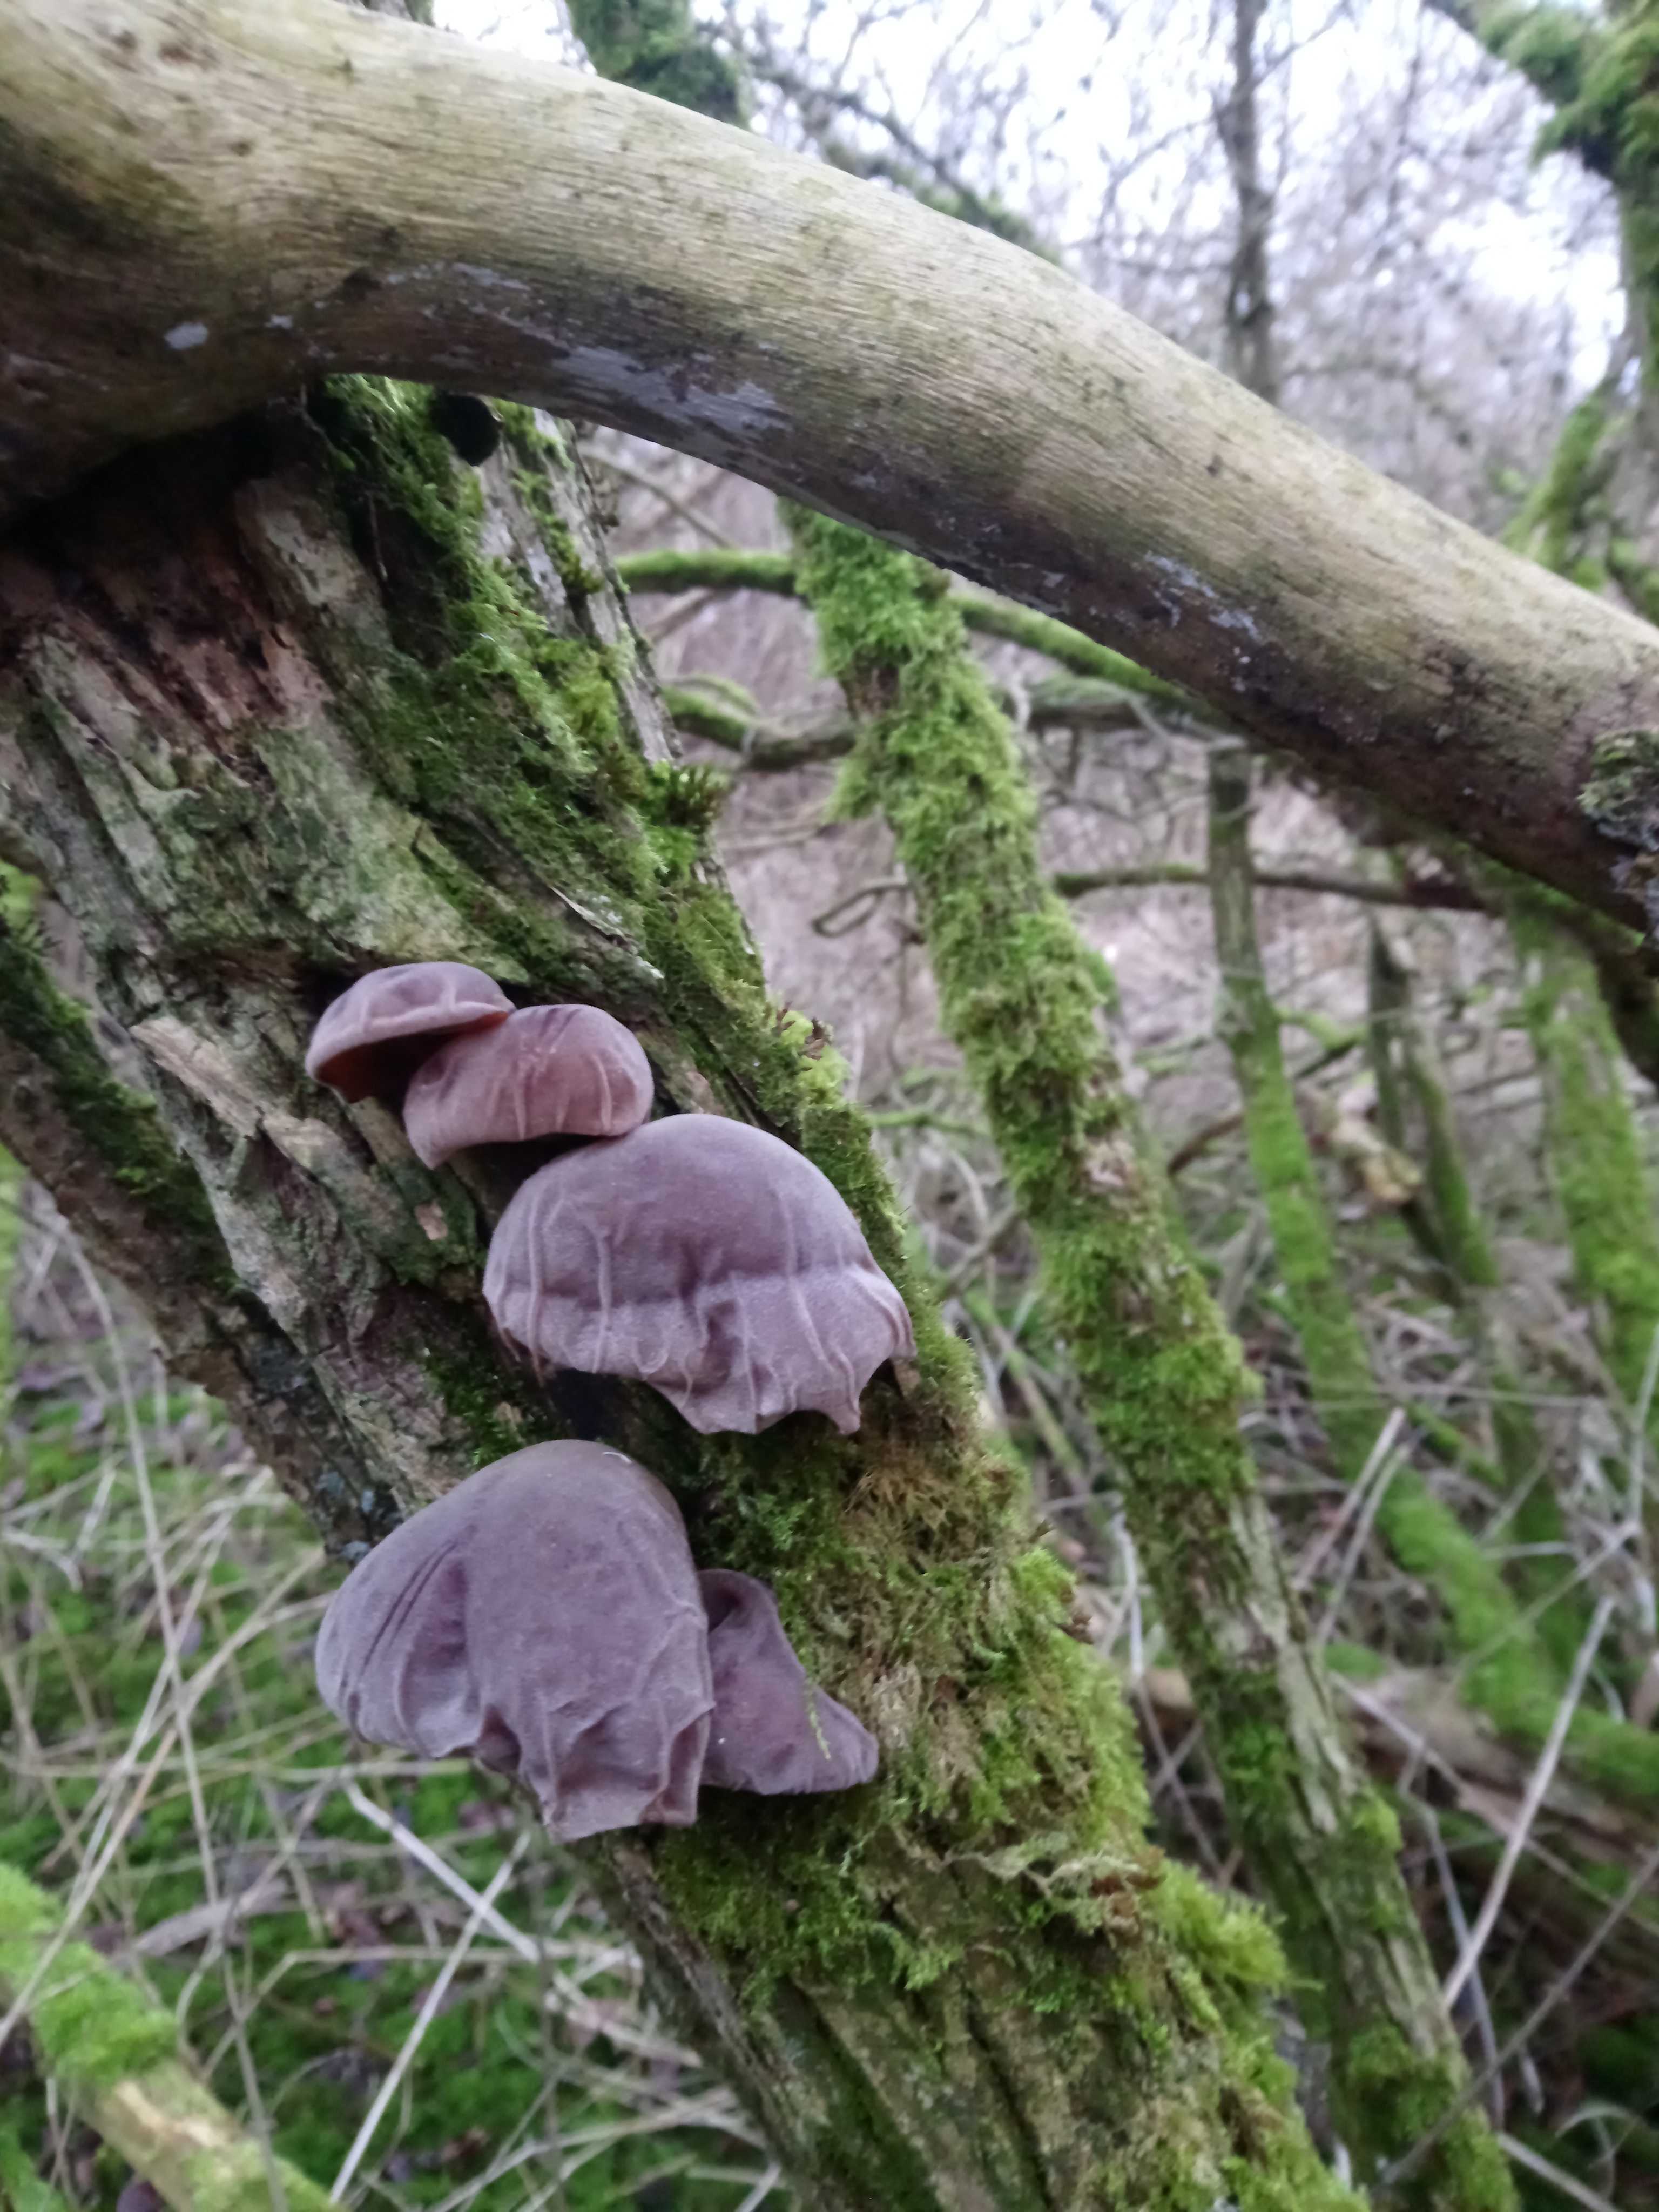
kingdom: Fungi
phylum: Basidiomycota
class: Agaricomycetes
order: Auriculariales
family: Auriculariaceae
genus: Auricularia
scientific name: Auricularia auricula-judae
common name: almindelig judasøre
